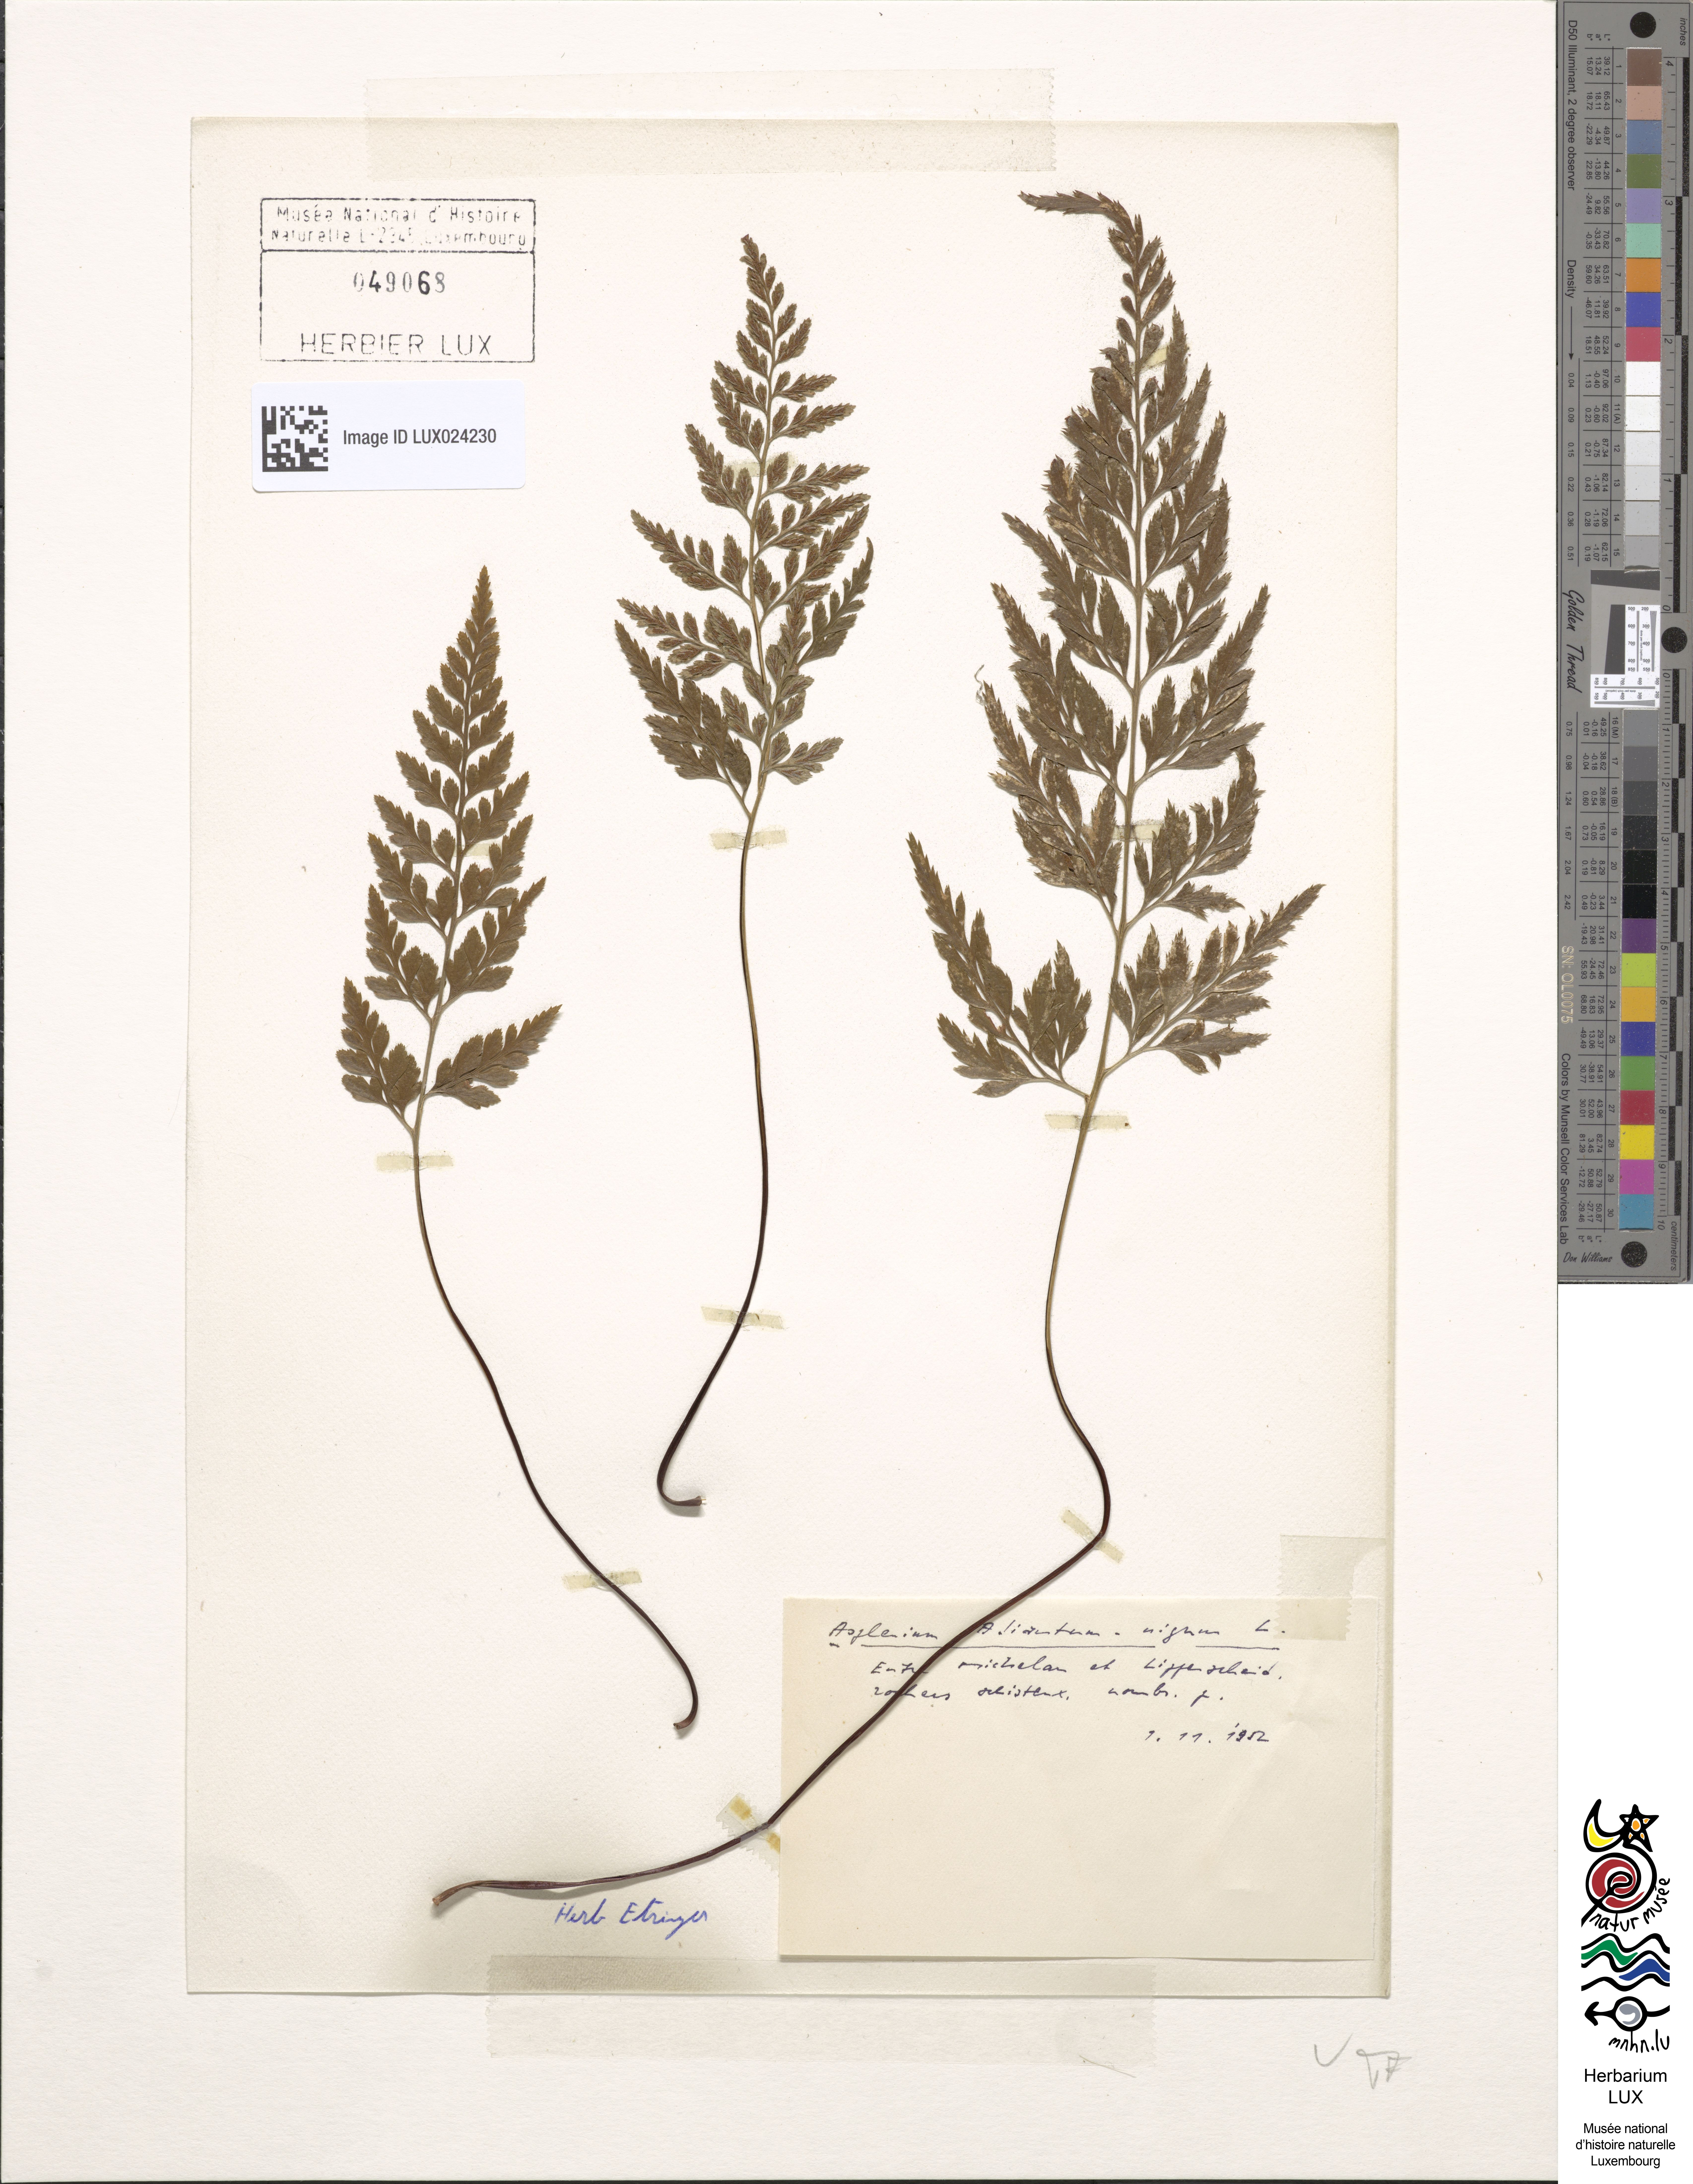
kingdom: Plantae
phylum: Tracheophyta
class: Polypodiopsida
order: Polypodiales
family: Aspleniaceae
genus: Asplenium
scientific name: Asplenium adiantum-nigrum
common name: Black spleenwort
